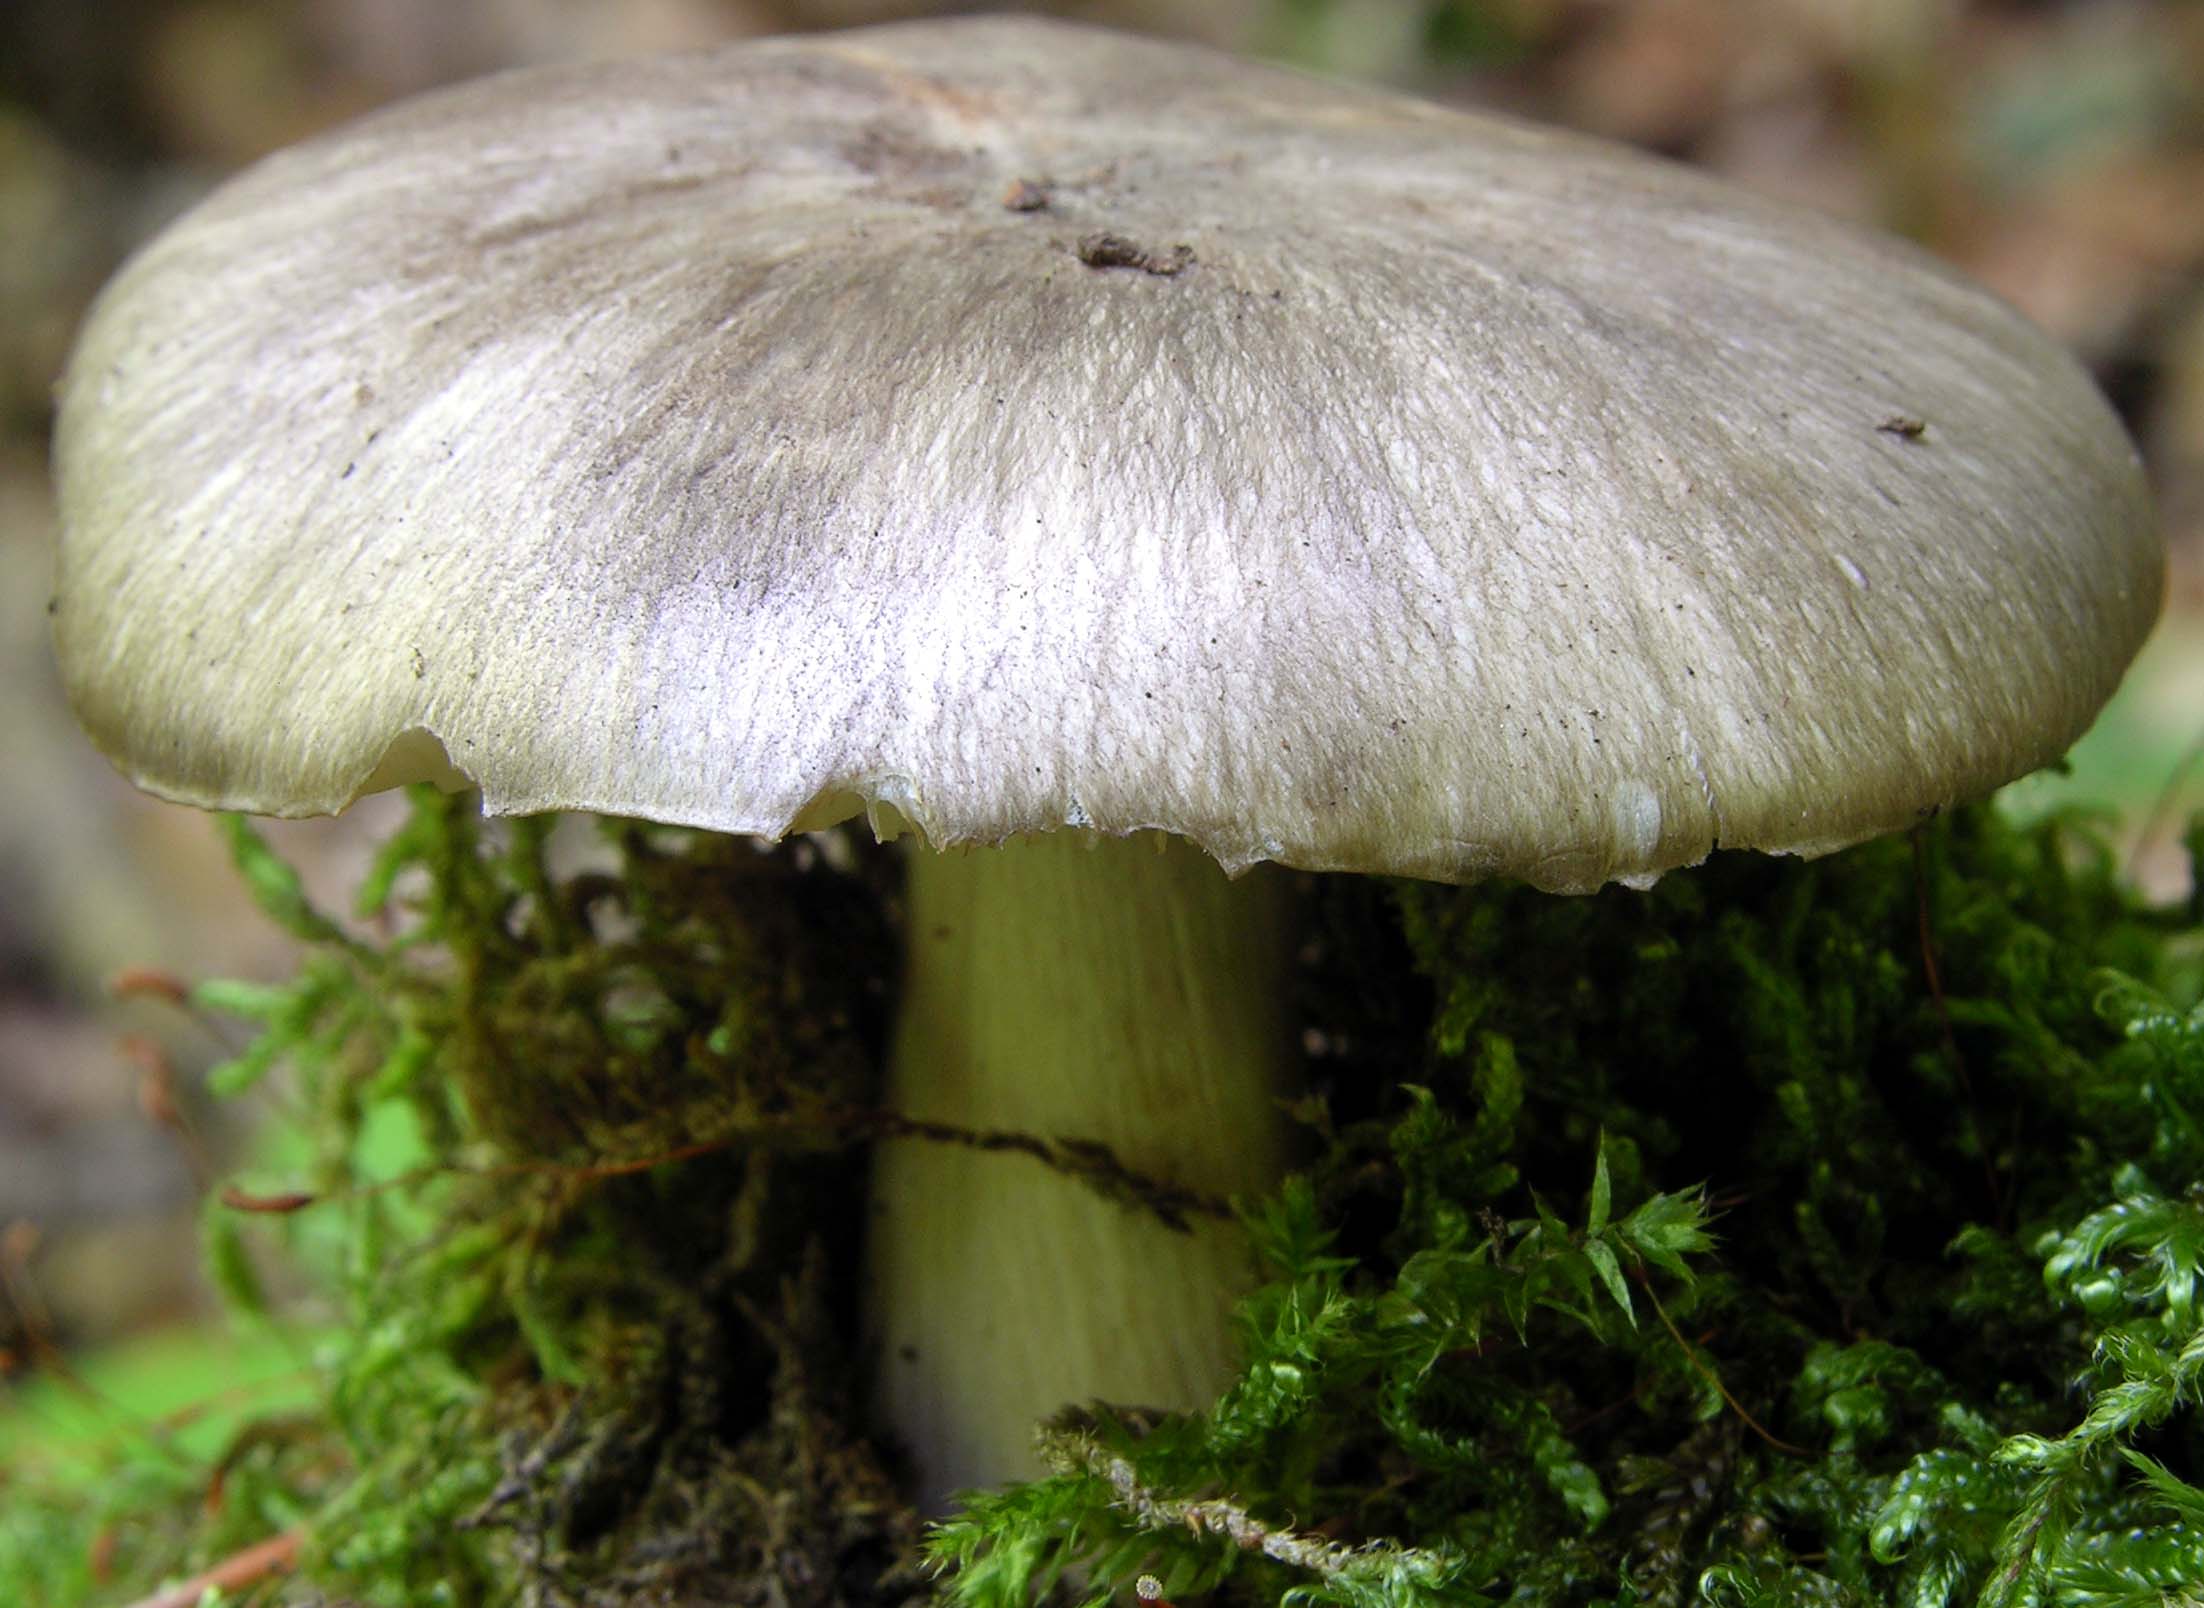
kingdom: Fungi
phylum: Basidiomycota
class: Agaricomycetes
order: Agaricales
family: Tricholomataceae
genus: Megacollybia
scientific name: Megacollybia platyphylla
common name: bredbladet væbnerhat
